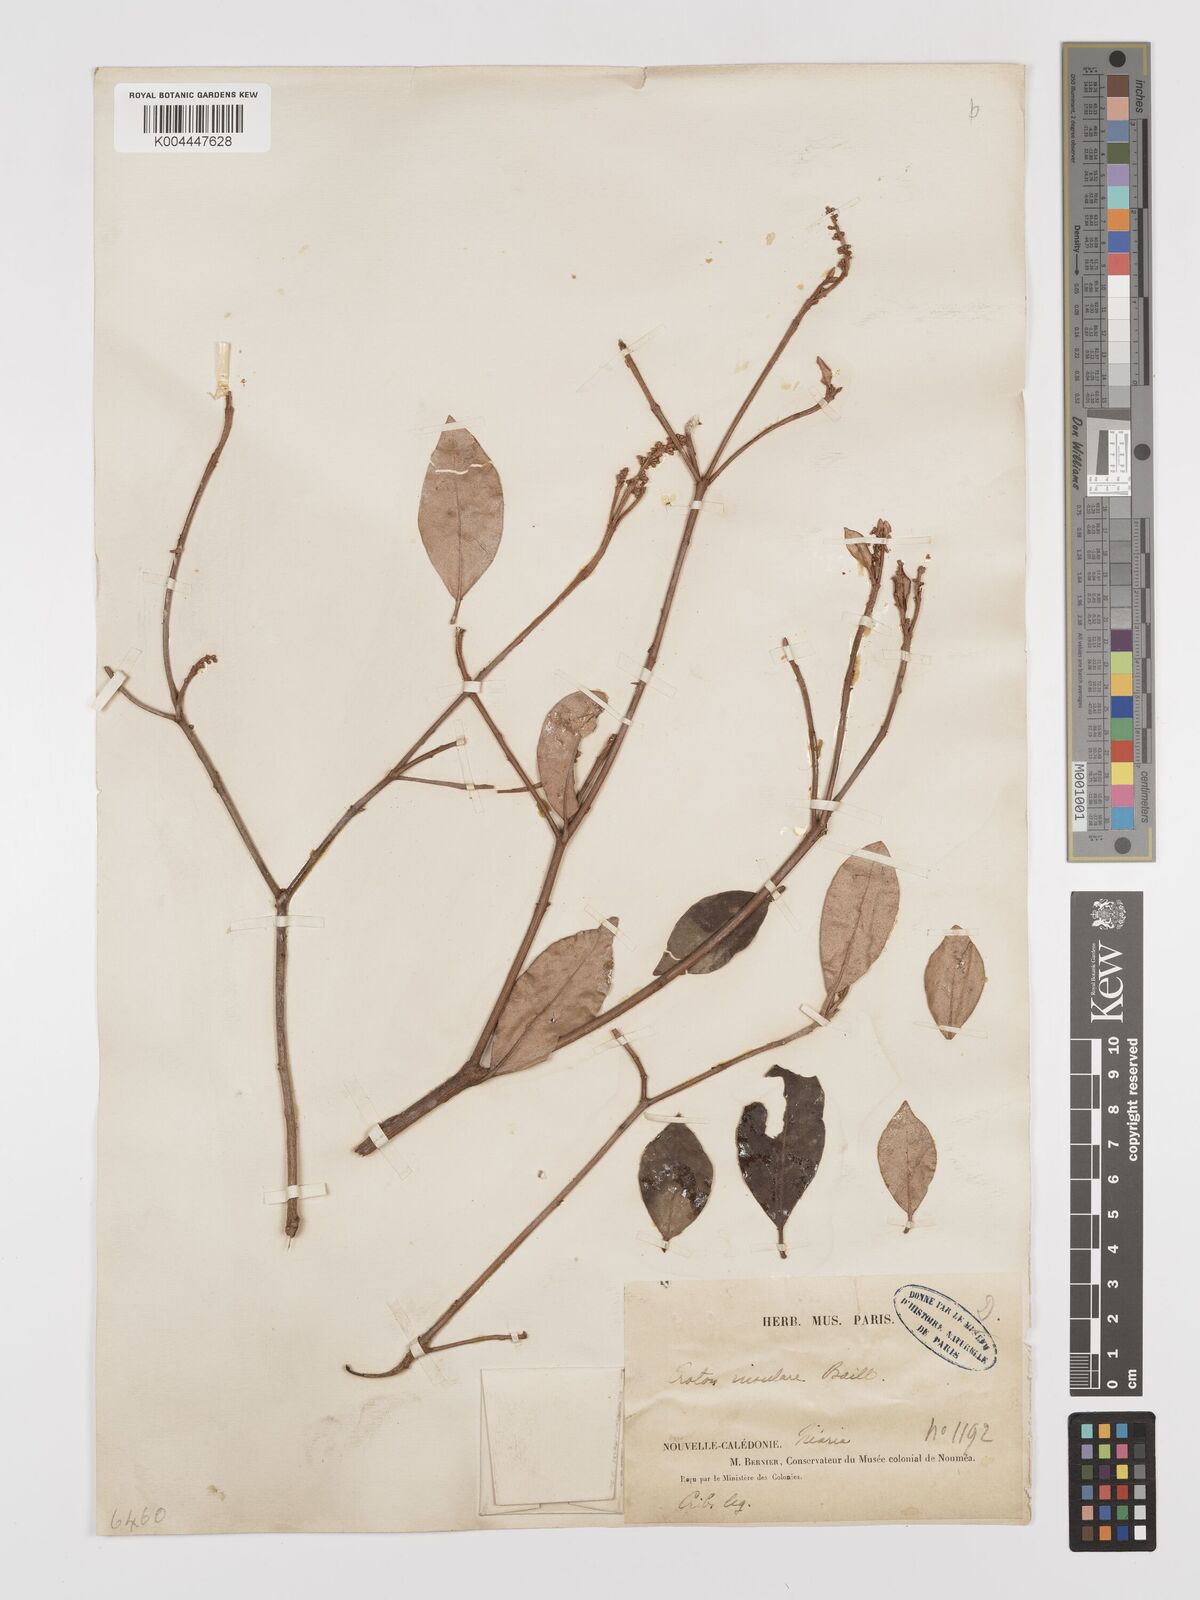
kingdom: Plantae
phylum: Tracheophyta
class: Magnoliopsida
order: Malpighiales
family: Euphorbiaceae
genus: Croton
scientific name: Croton insularis
